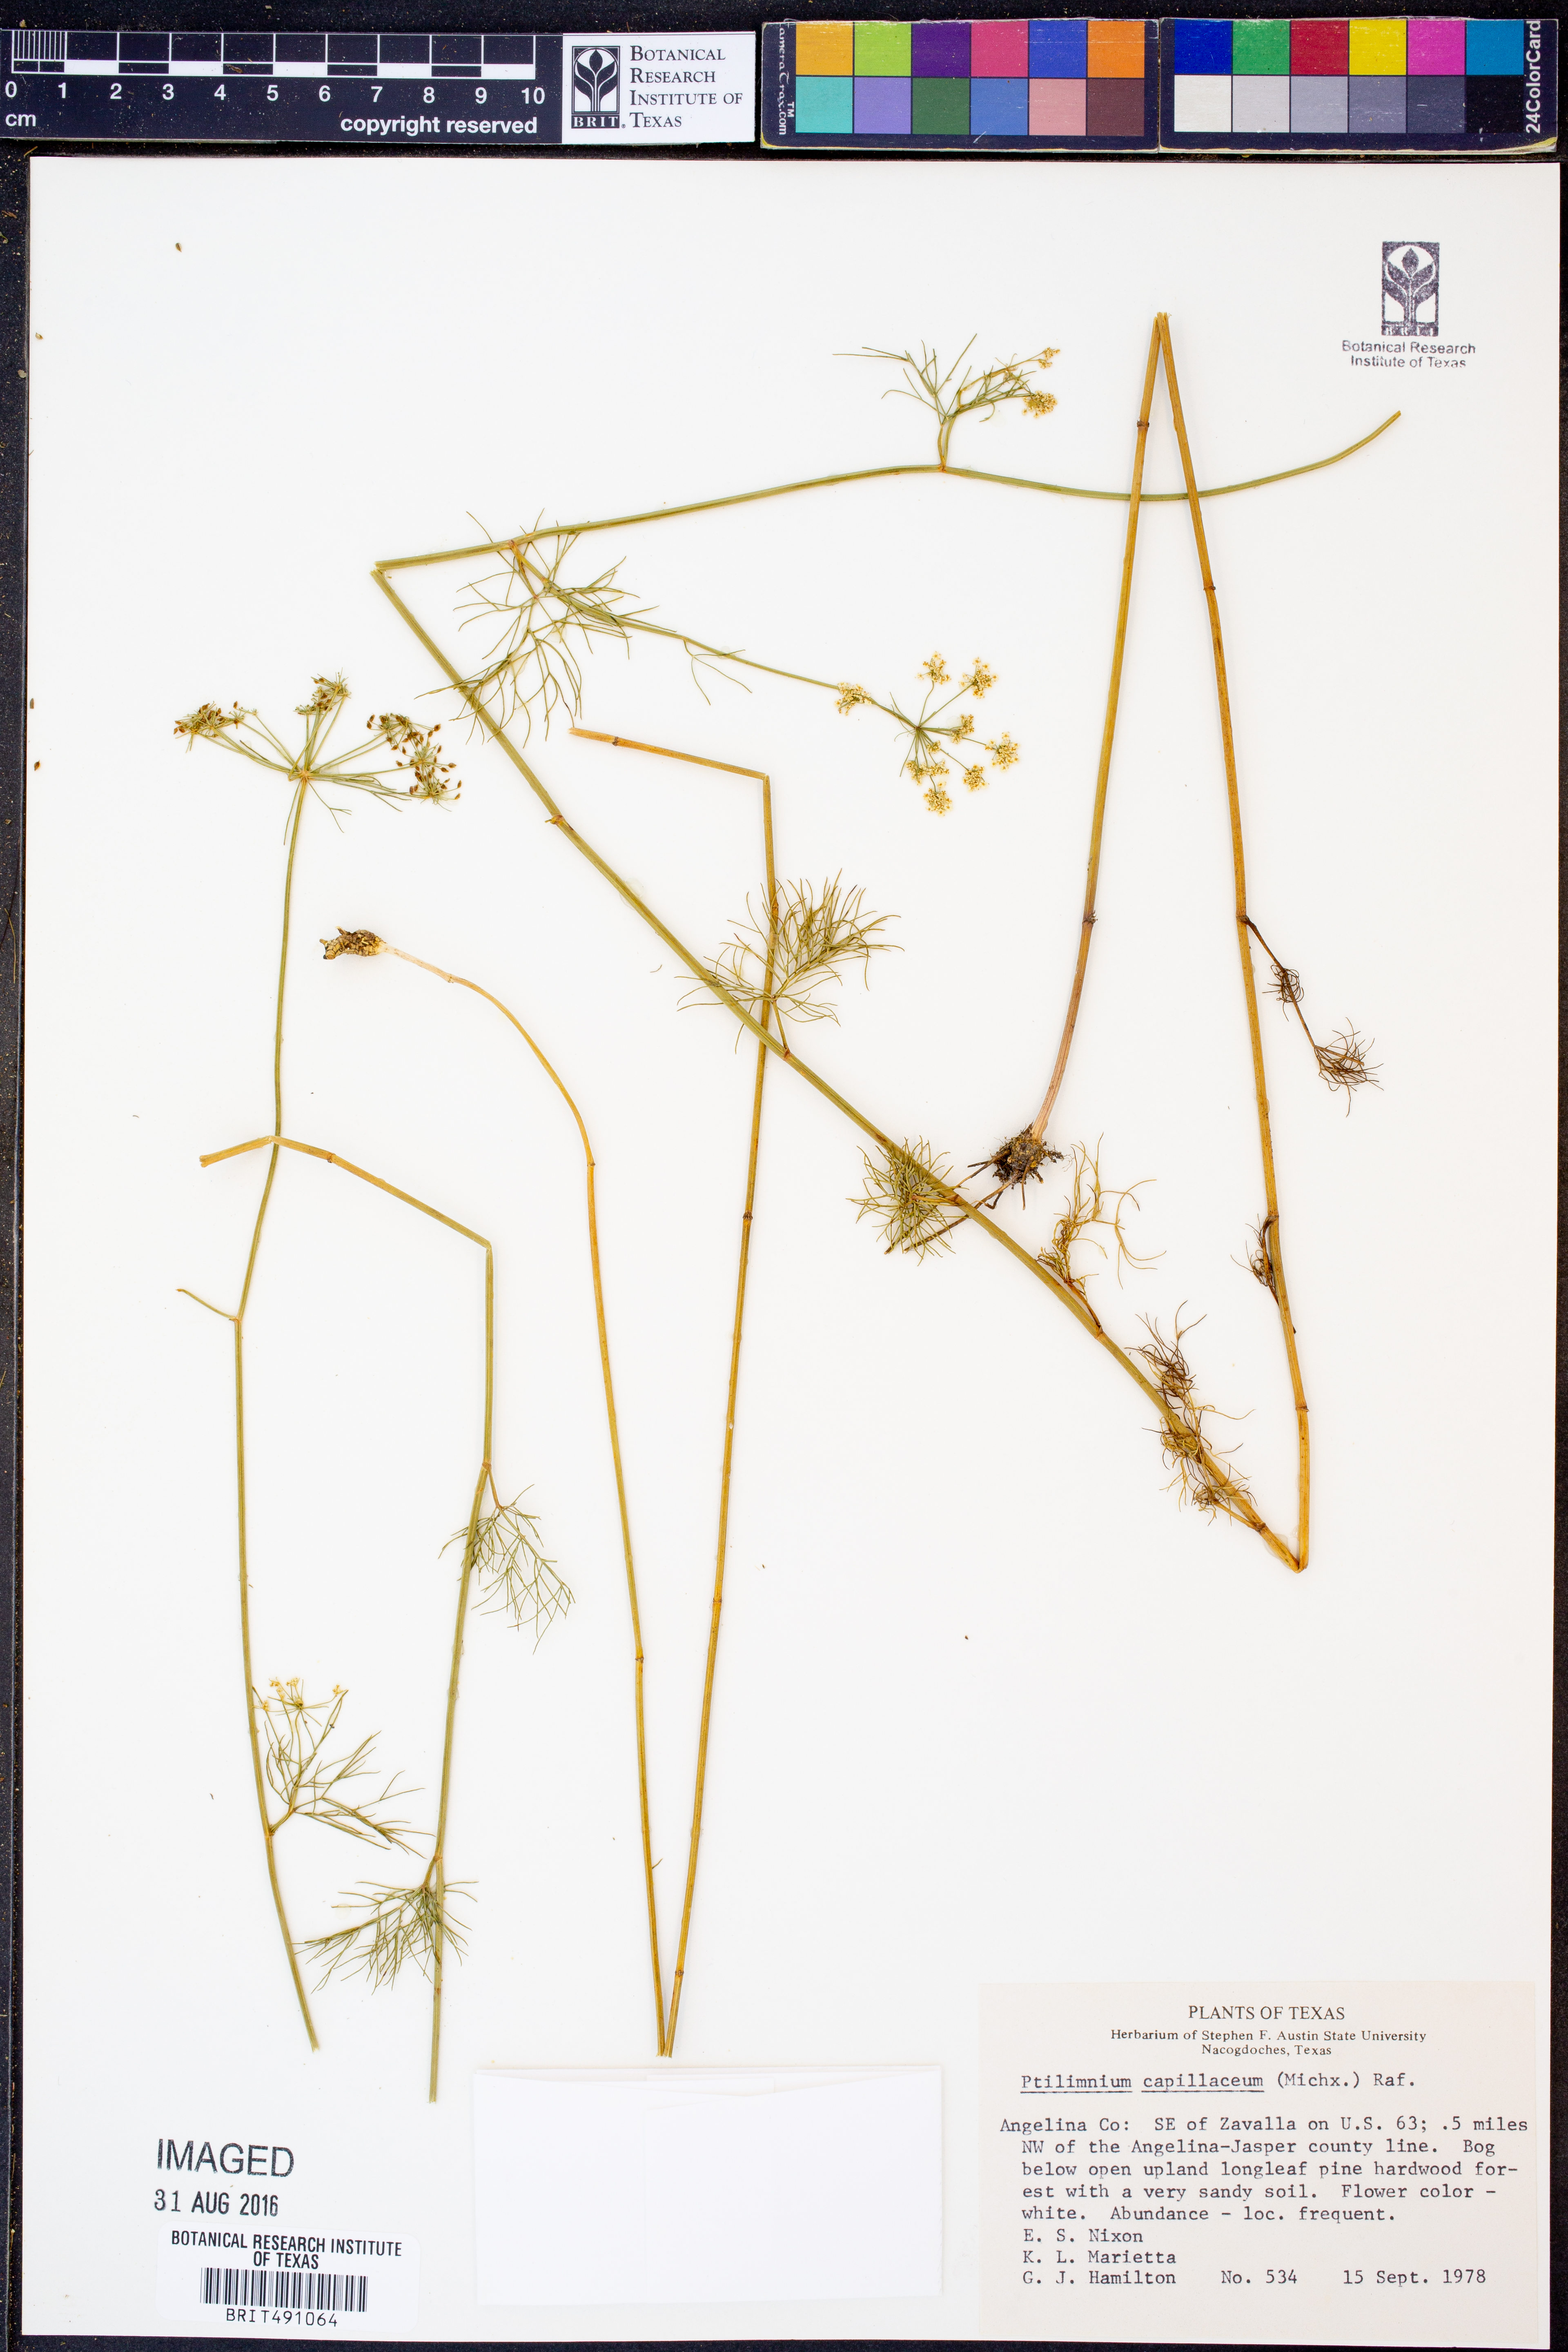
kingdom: Plantae
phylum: Tracheophyta
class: Magnoliopsida
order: Apiales
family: Apiaceae
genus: Ptilimnium
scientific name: Ptilimnium capillaceum
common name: Herbwilliam
